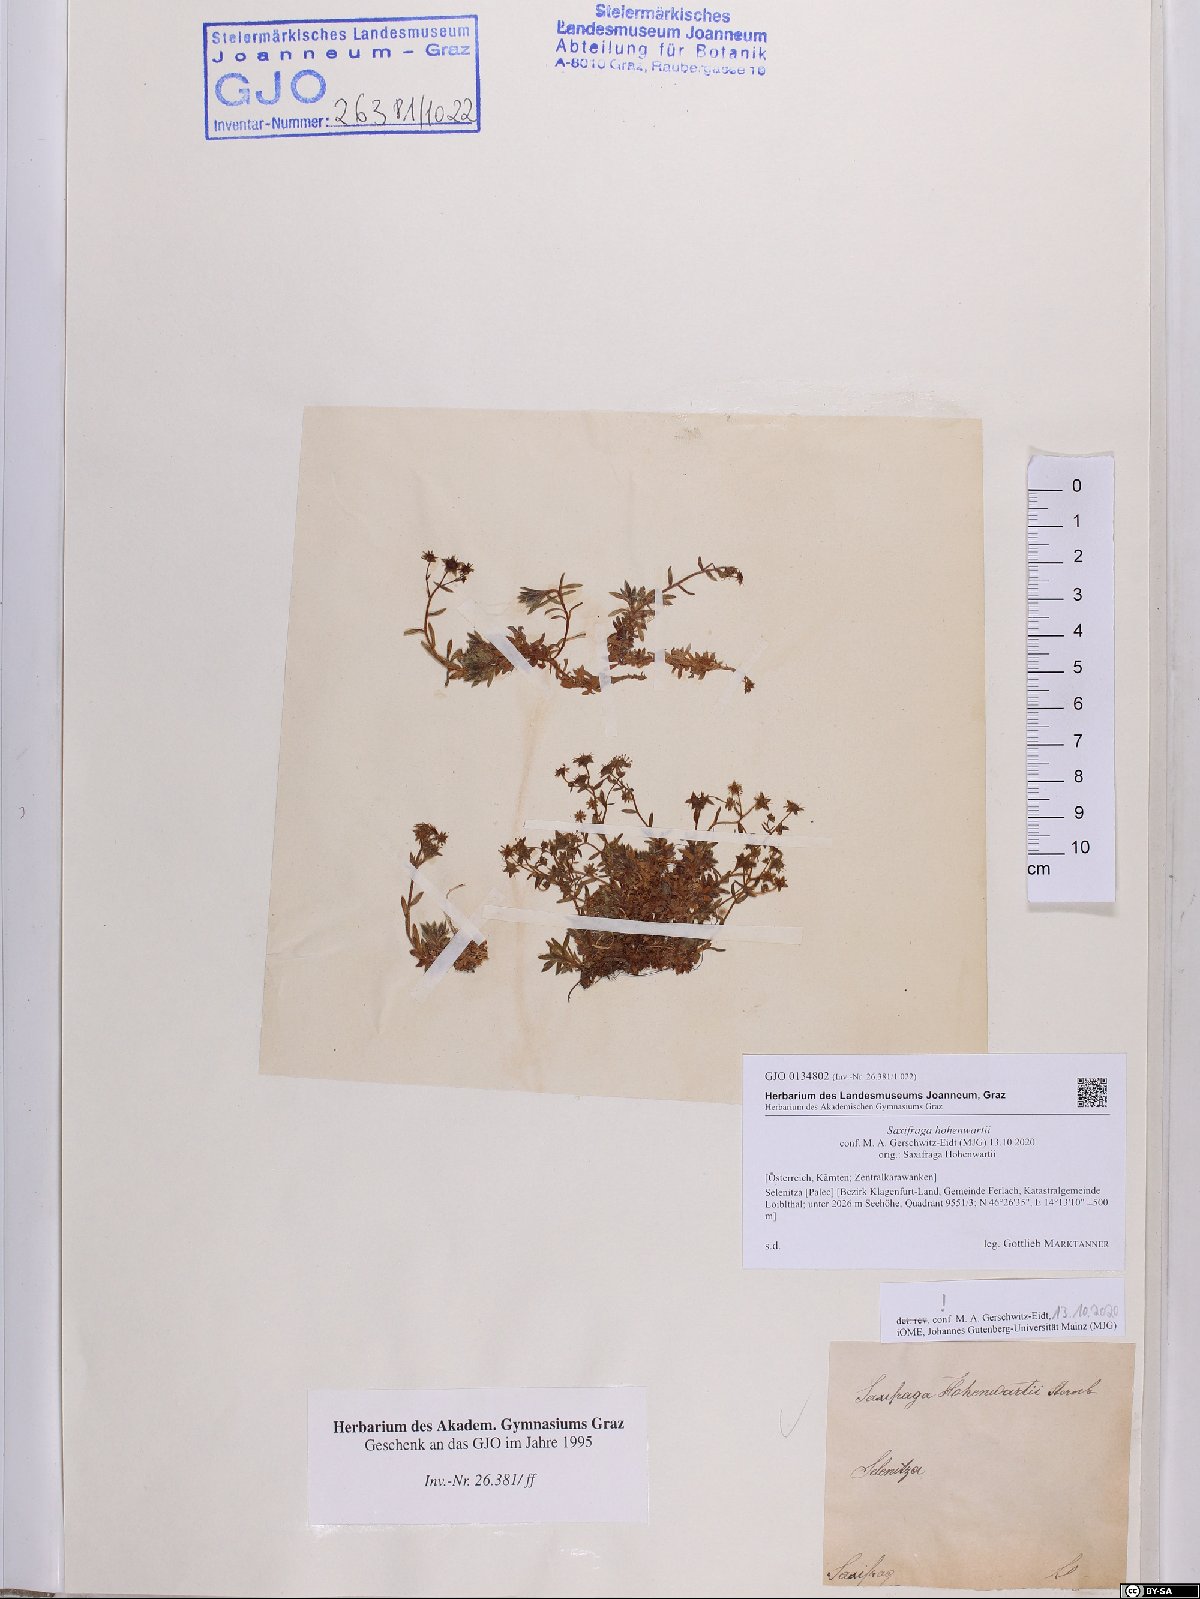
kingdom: Plantae
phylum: Tracheophyta
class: Magnoliopsida
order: Saxifragales
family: Saxifragaceae
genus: Saxifraga
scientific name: Saxifraga hohenwartii
